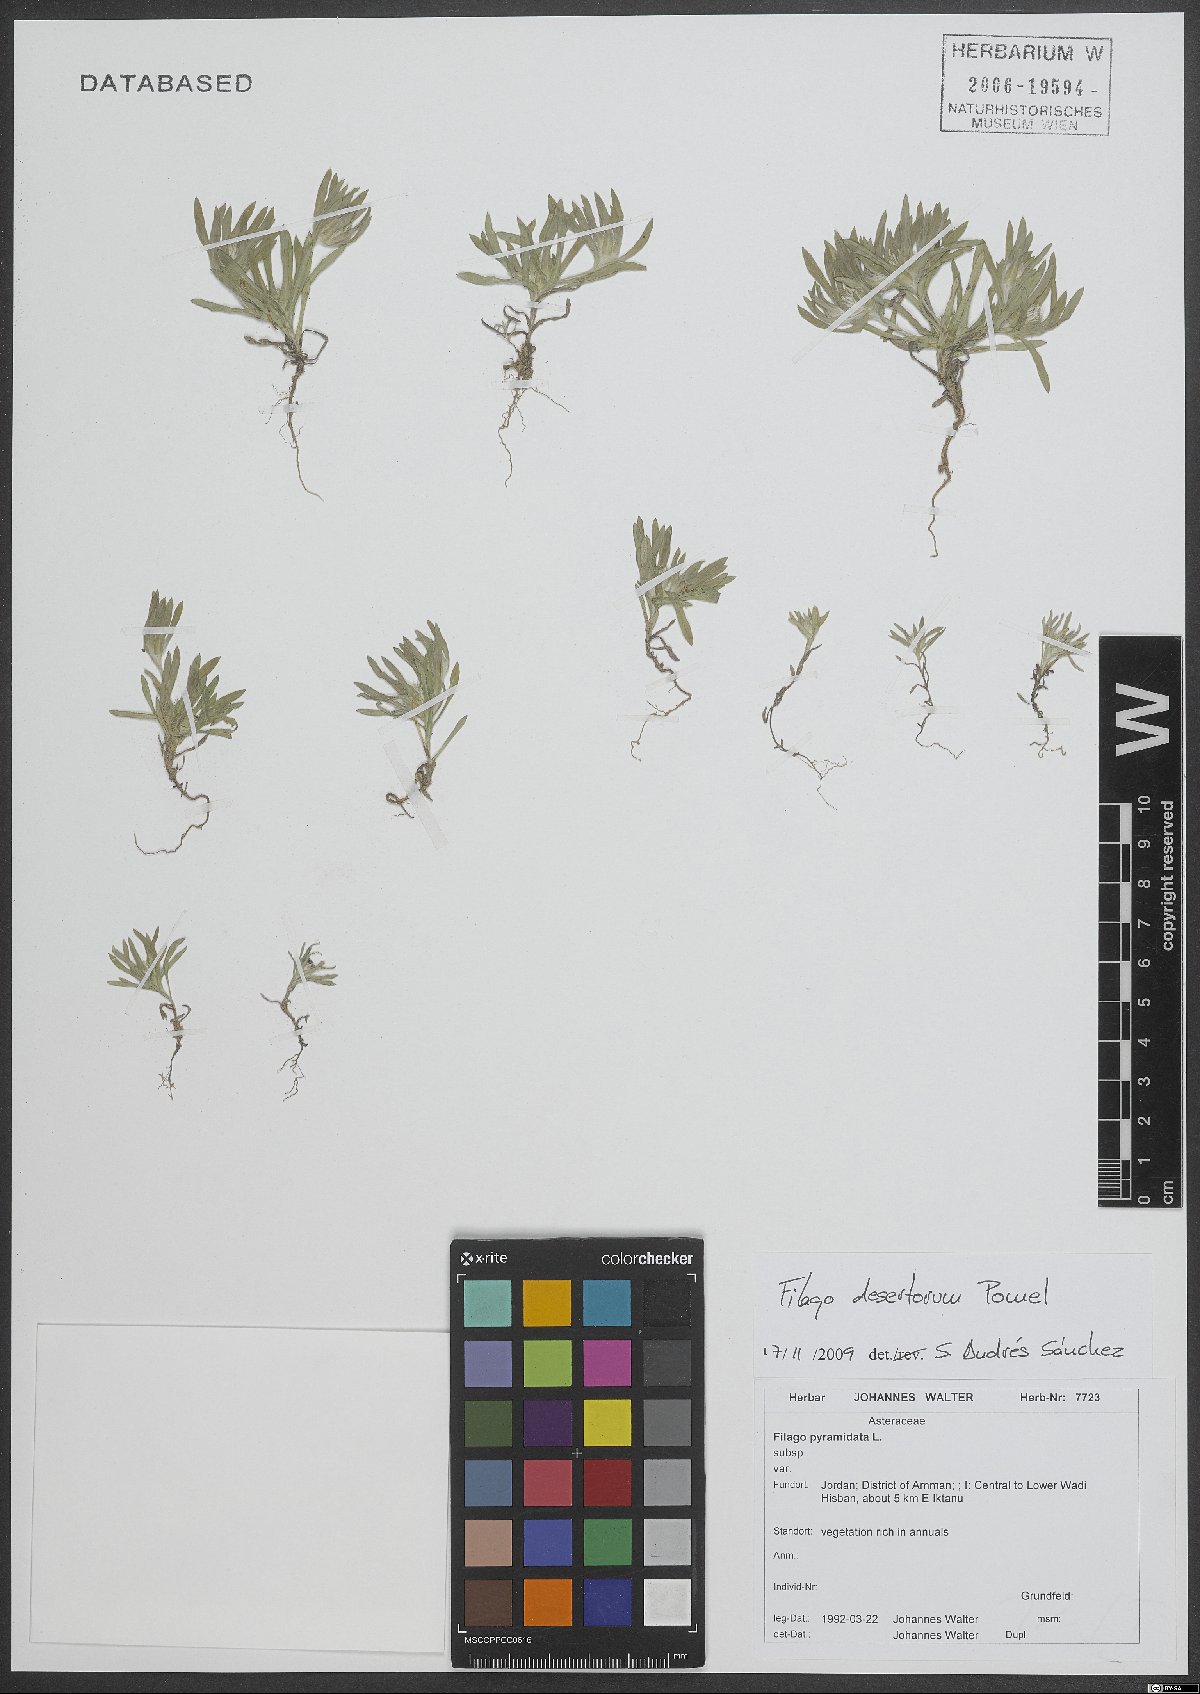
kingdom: Plantae
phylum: Tracheophyta
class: Magnoliopsida
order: Asterales
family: Asteraceae
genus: Filago
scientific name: Filago desertorum
